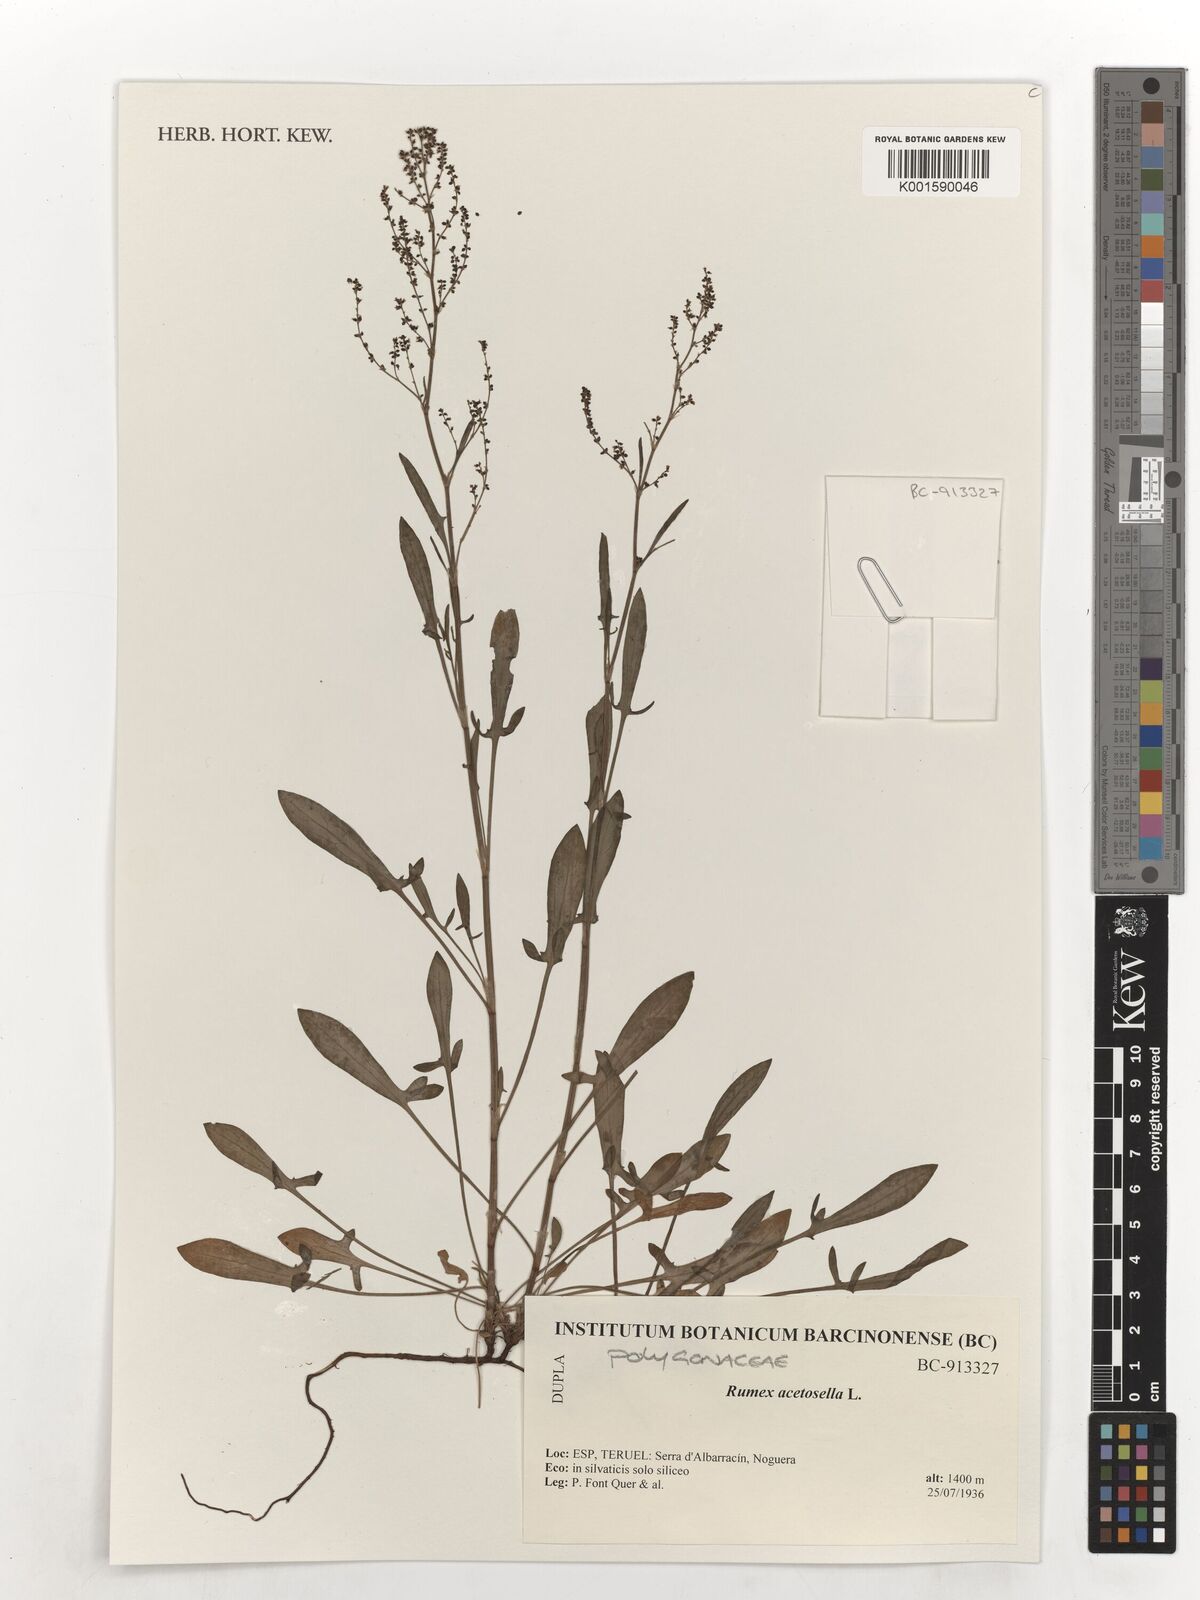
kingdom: Plantae
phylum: Tracheophyta
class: Magnoliopsida
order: Caryophyllales
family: Polygonaceae
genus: Rumex
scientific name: Rumex acetosella
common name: Common sheep sorrel
